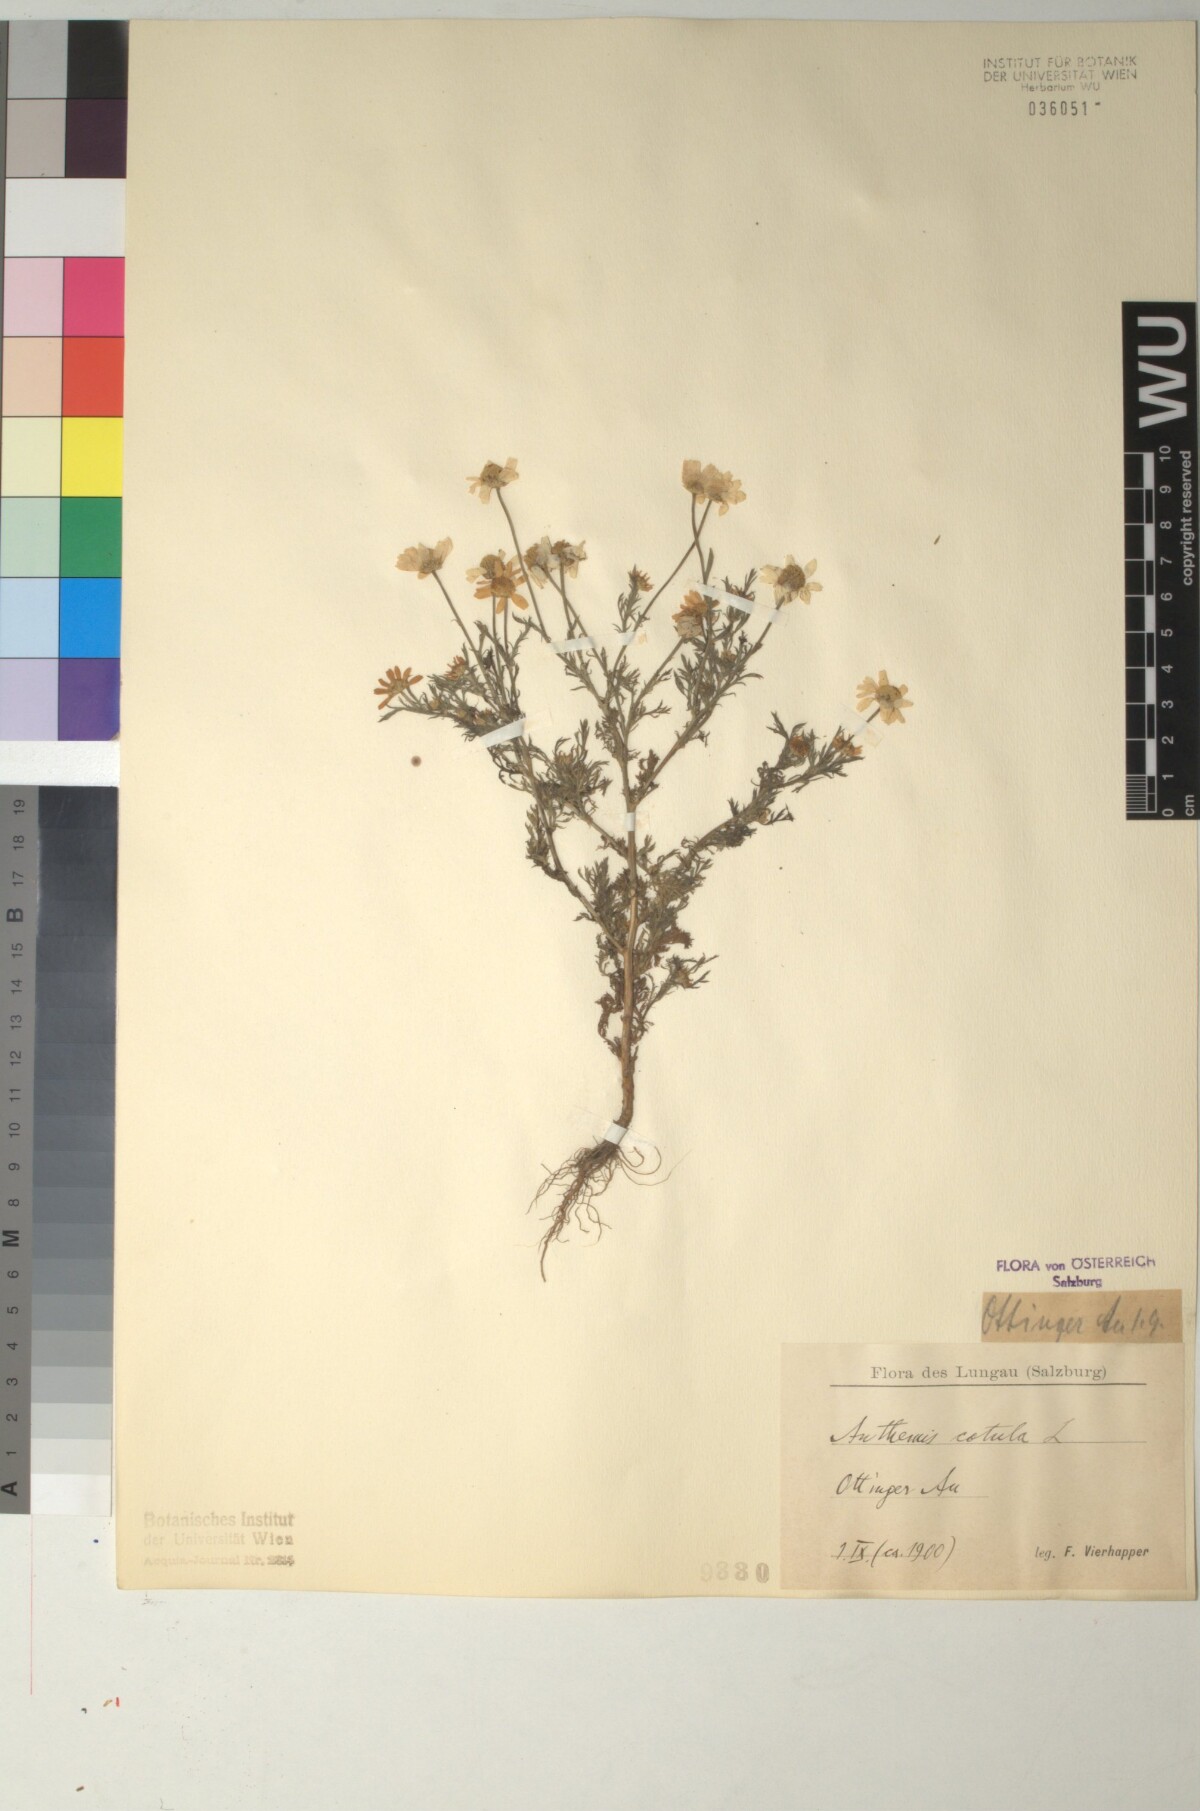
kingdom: Plantae
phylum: Tracheophyta
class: Magnoliopsida
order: Asterales
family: Asteraceae
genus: Anthemis
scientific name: Anthemis cotula
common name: Stinking chamomile
